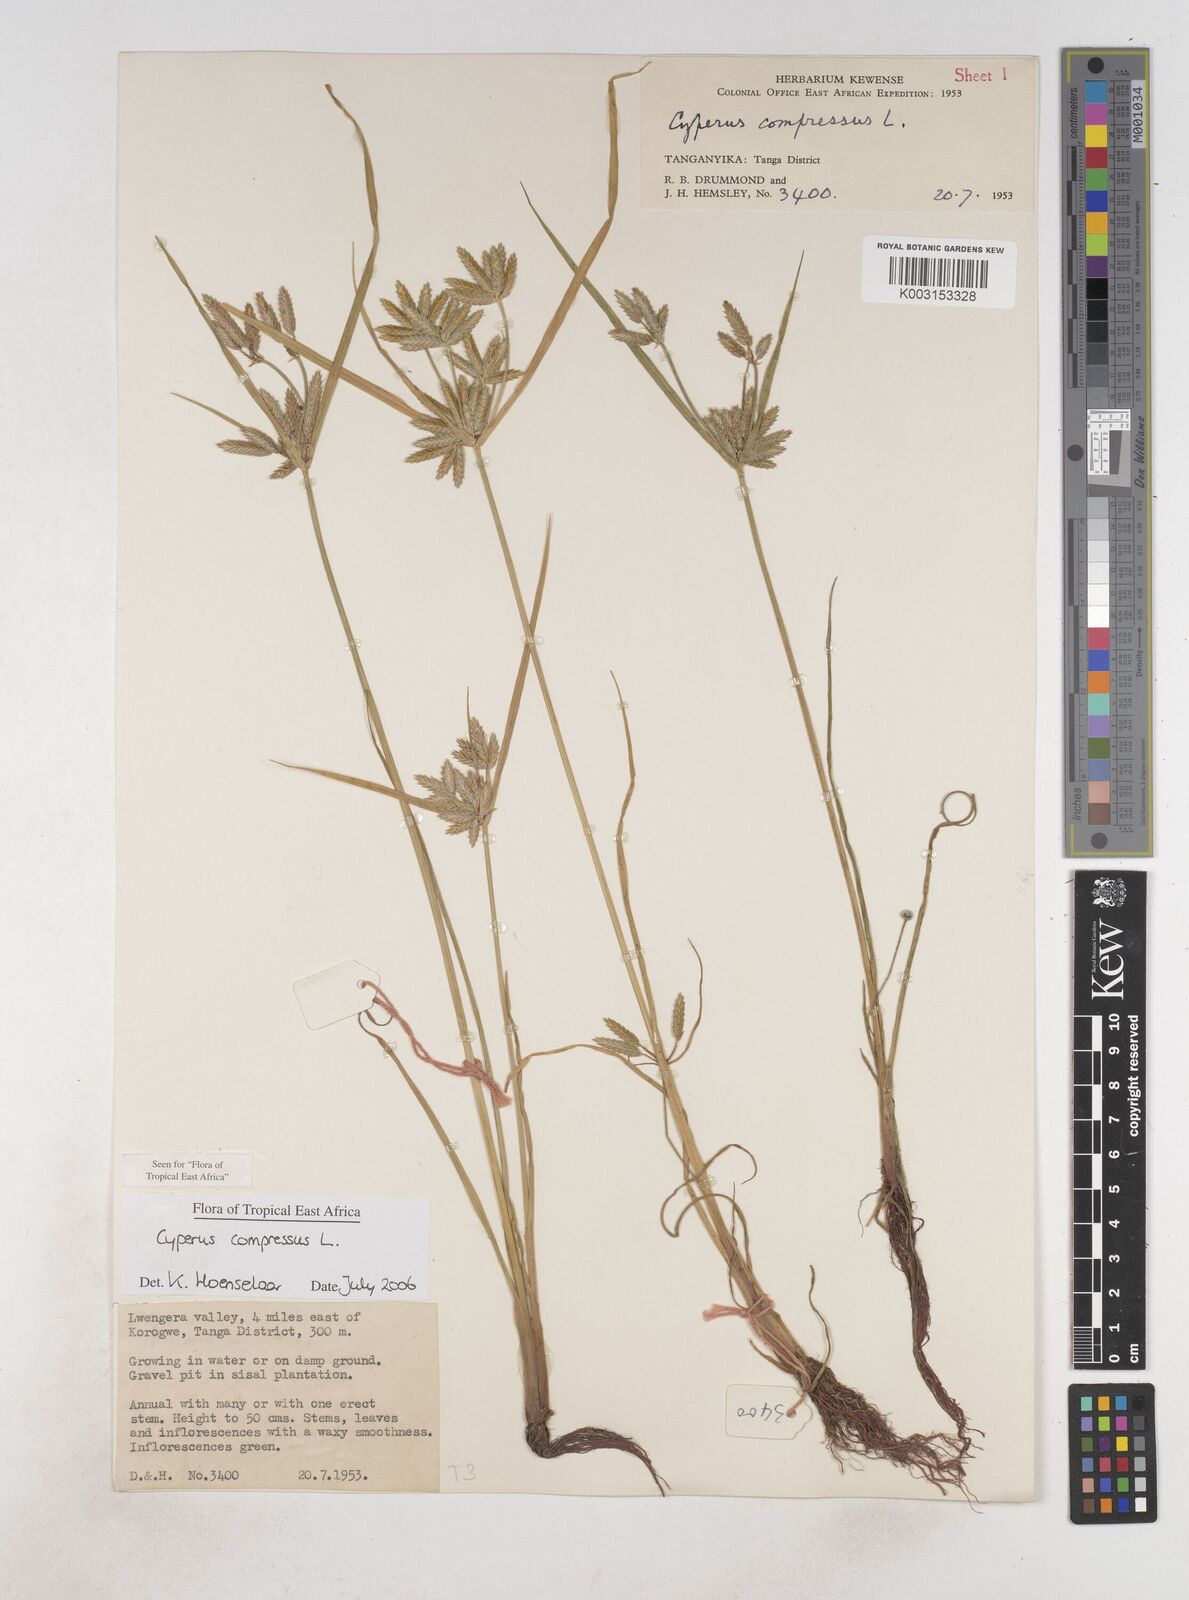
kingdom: Plantae
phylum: Tracheophyta
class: Liliopsida
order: Poales
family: Cyperaceae
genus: Cyperus
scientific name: Cyperus compressus
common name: Poorland flatsedge
